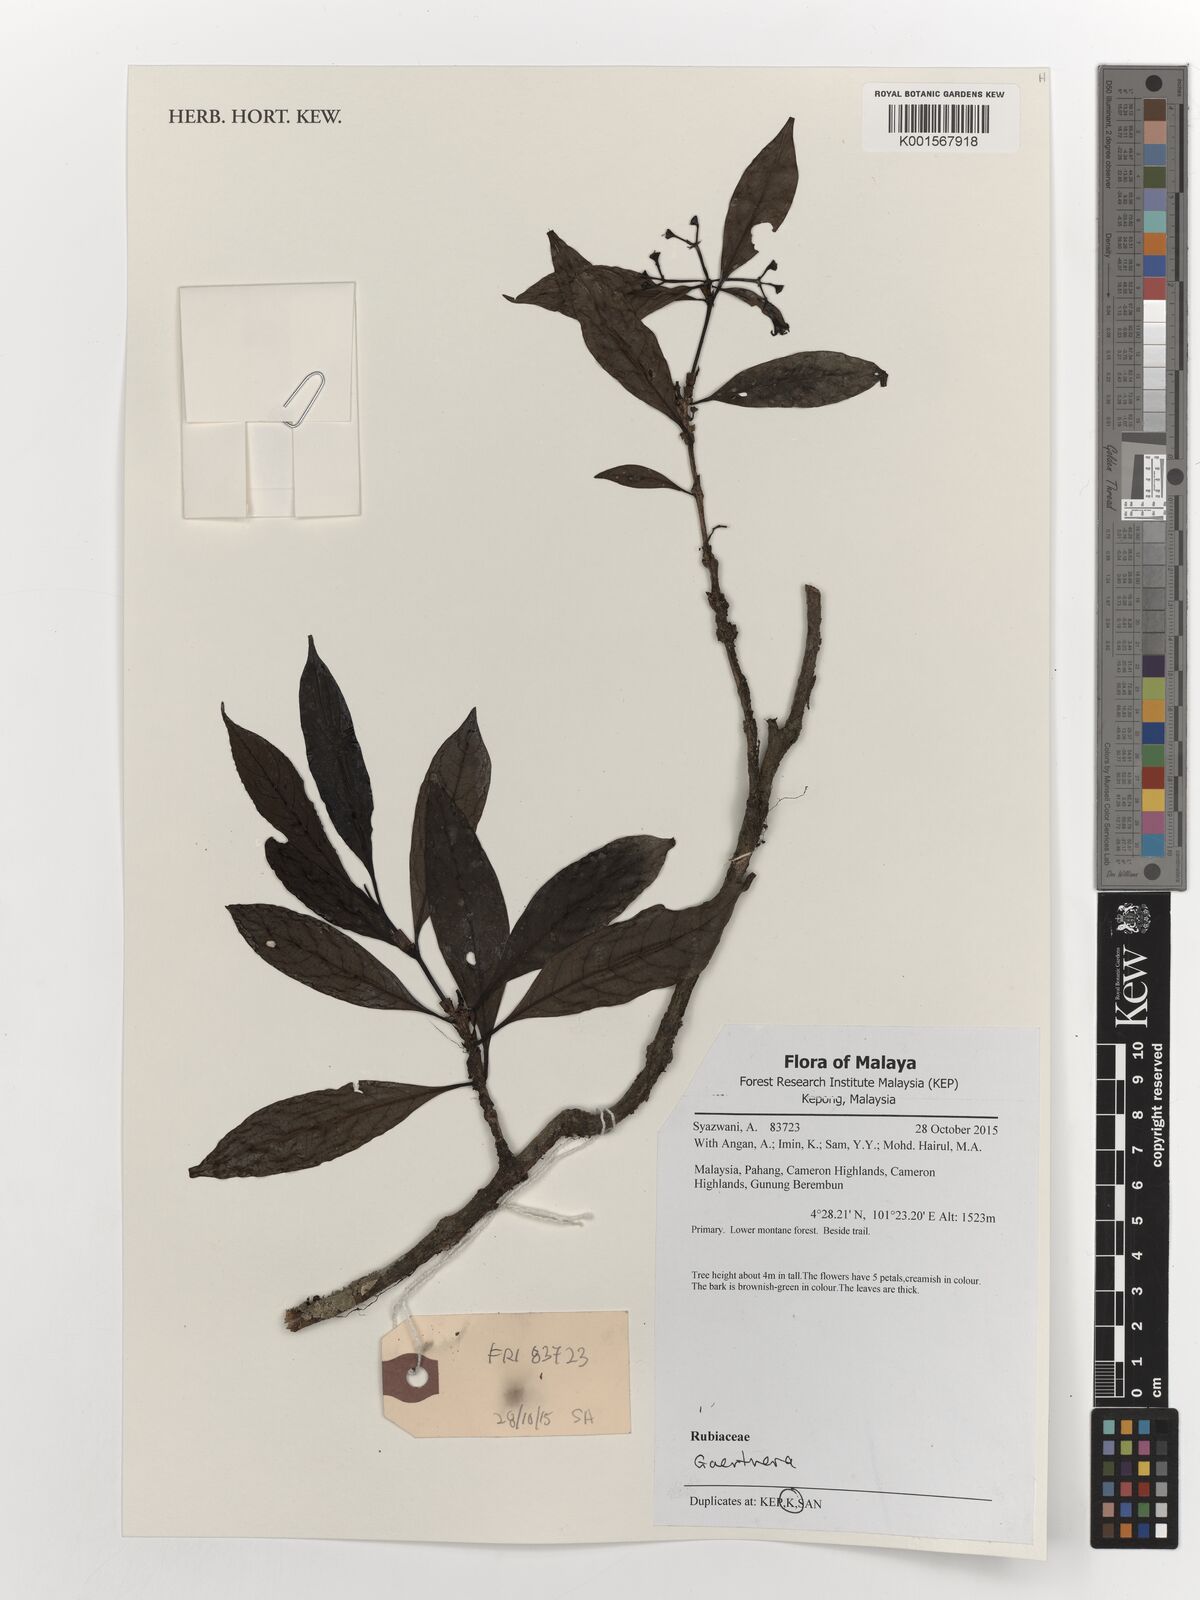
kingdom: Plantae
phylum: Tracheophyta
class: Magnoliopsida
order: Gentianales
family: Rubiaceae
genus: Gaertnera
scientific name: Gaertnera
